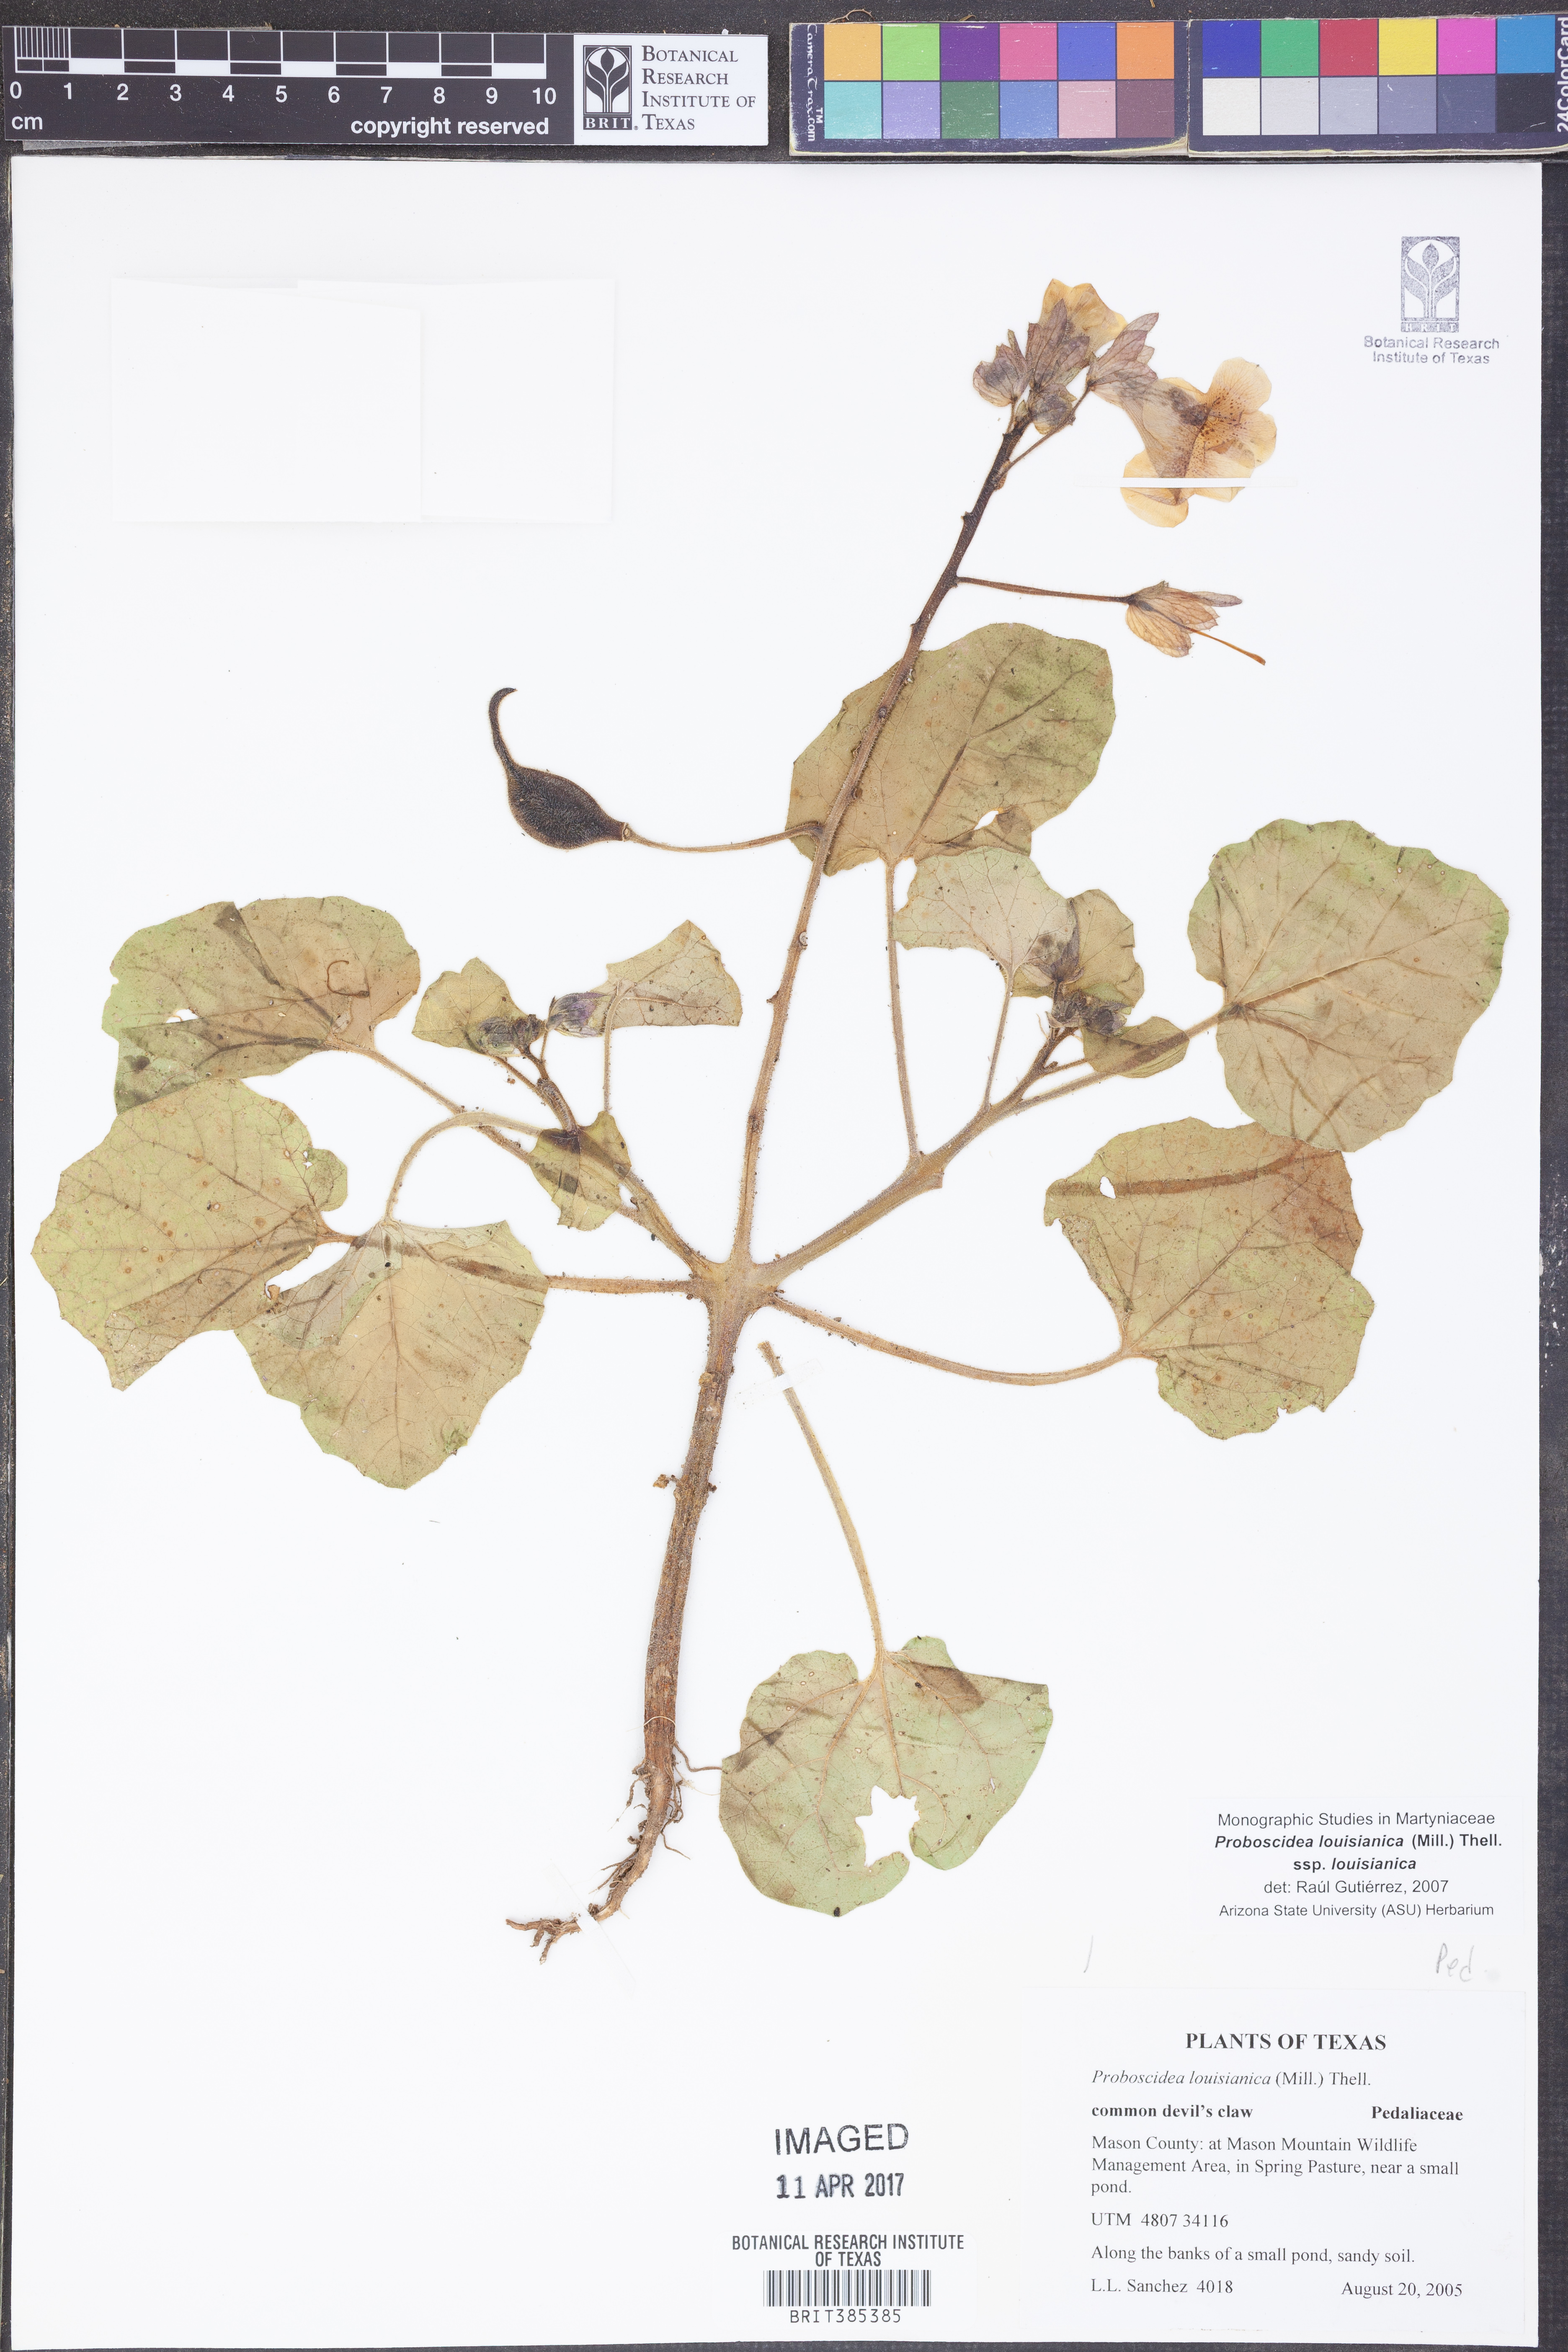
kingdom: Plantae
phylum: Tracheophyta
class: Magnoliopsida
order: Lamiales
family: Martyniaceae
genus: Proboscidea
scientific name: Proboscidea louisianica
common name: Elephant tusks
